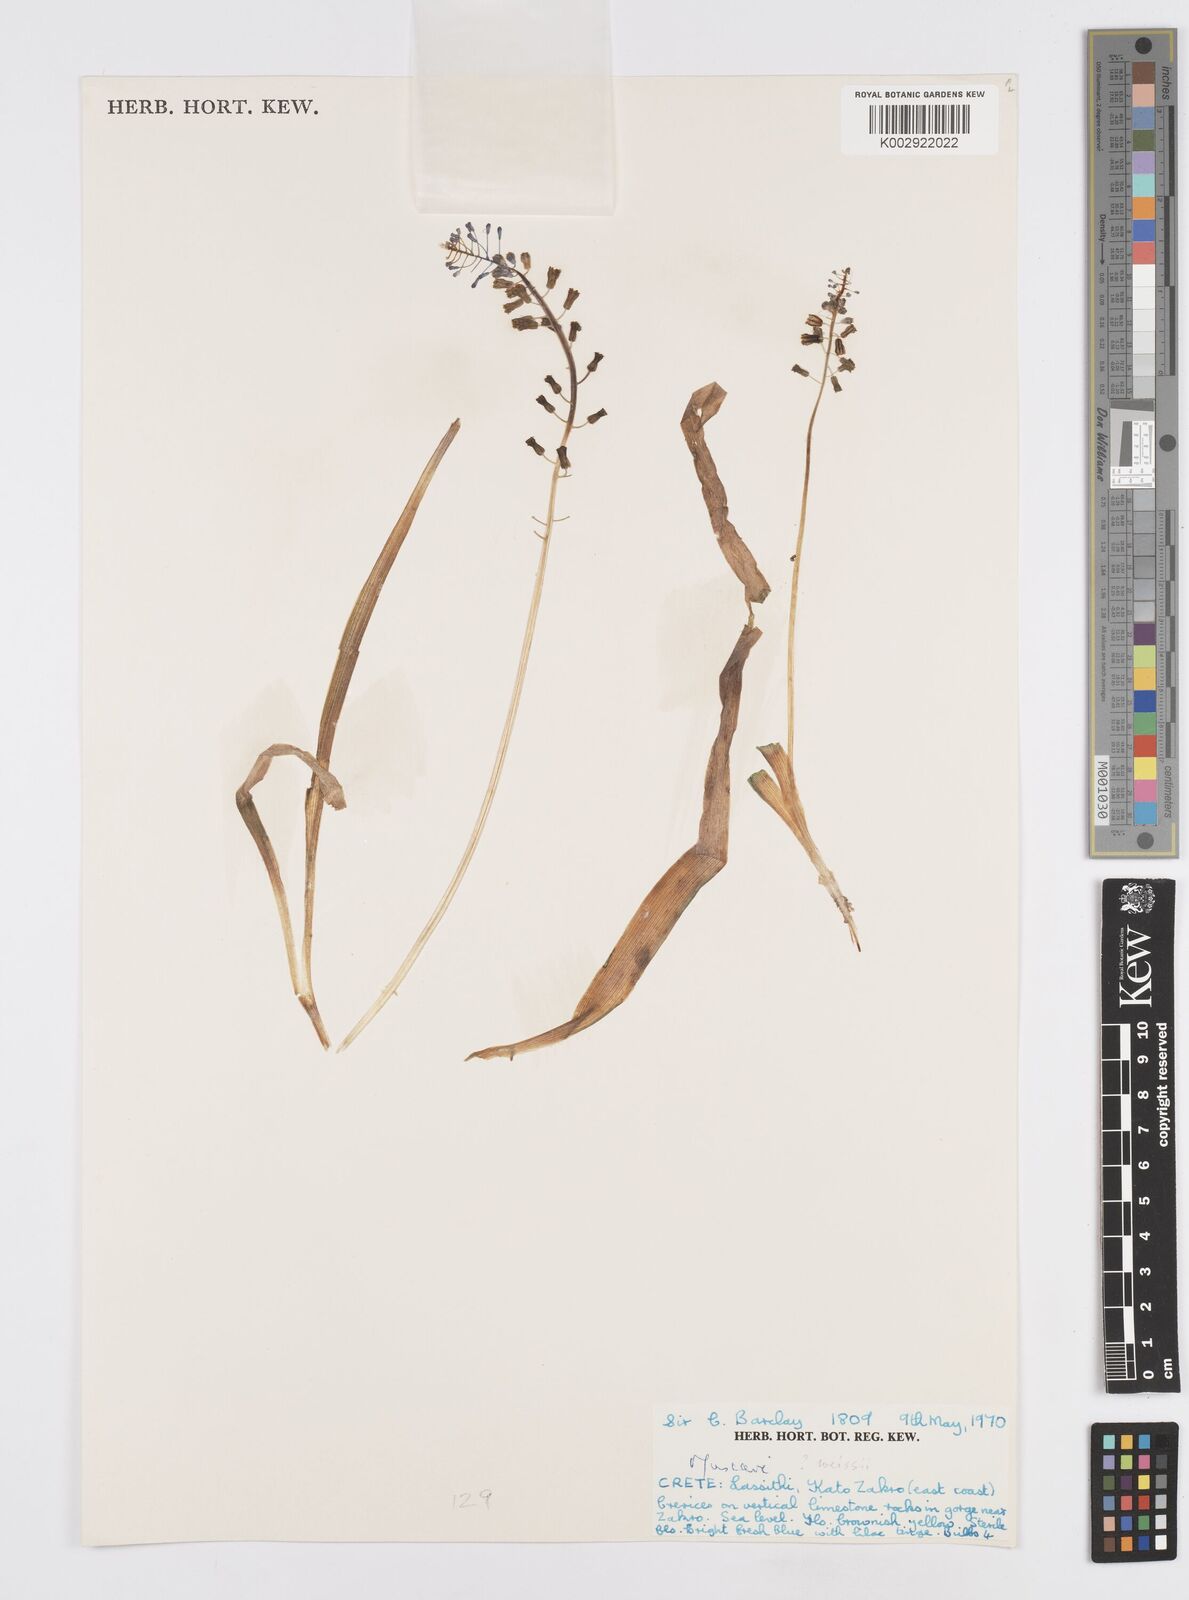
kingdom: Plantae
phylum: Tracheophyta
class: Liliopsida
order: Asparagales
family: Asparagaceae
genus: Muscari
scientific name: Muscari weissii
